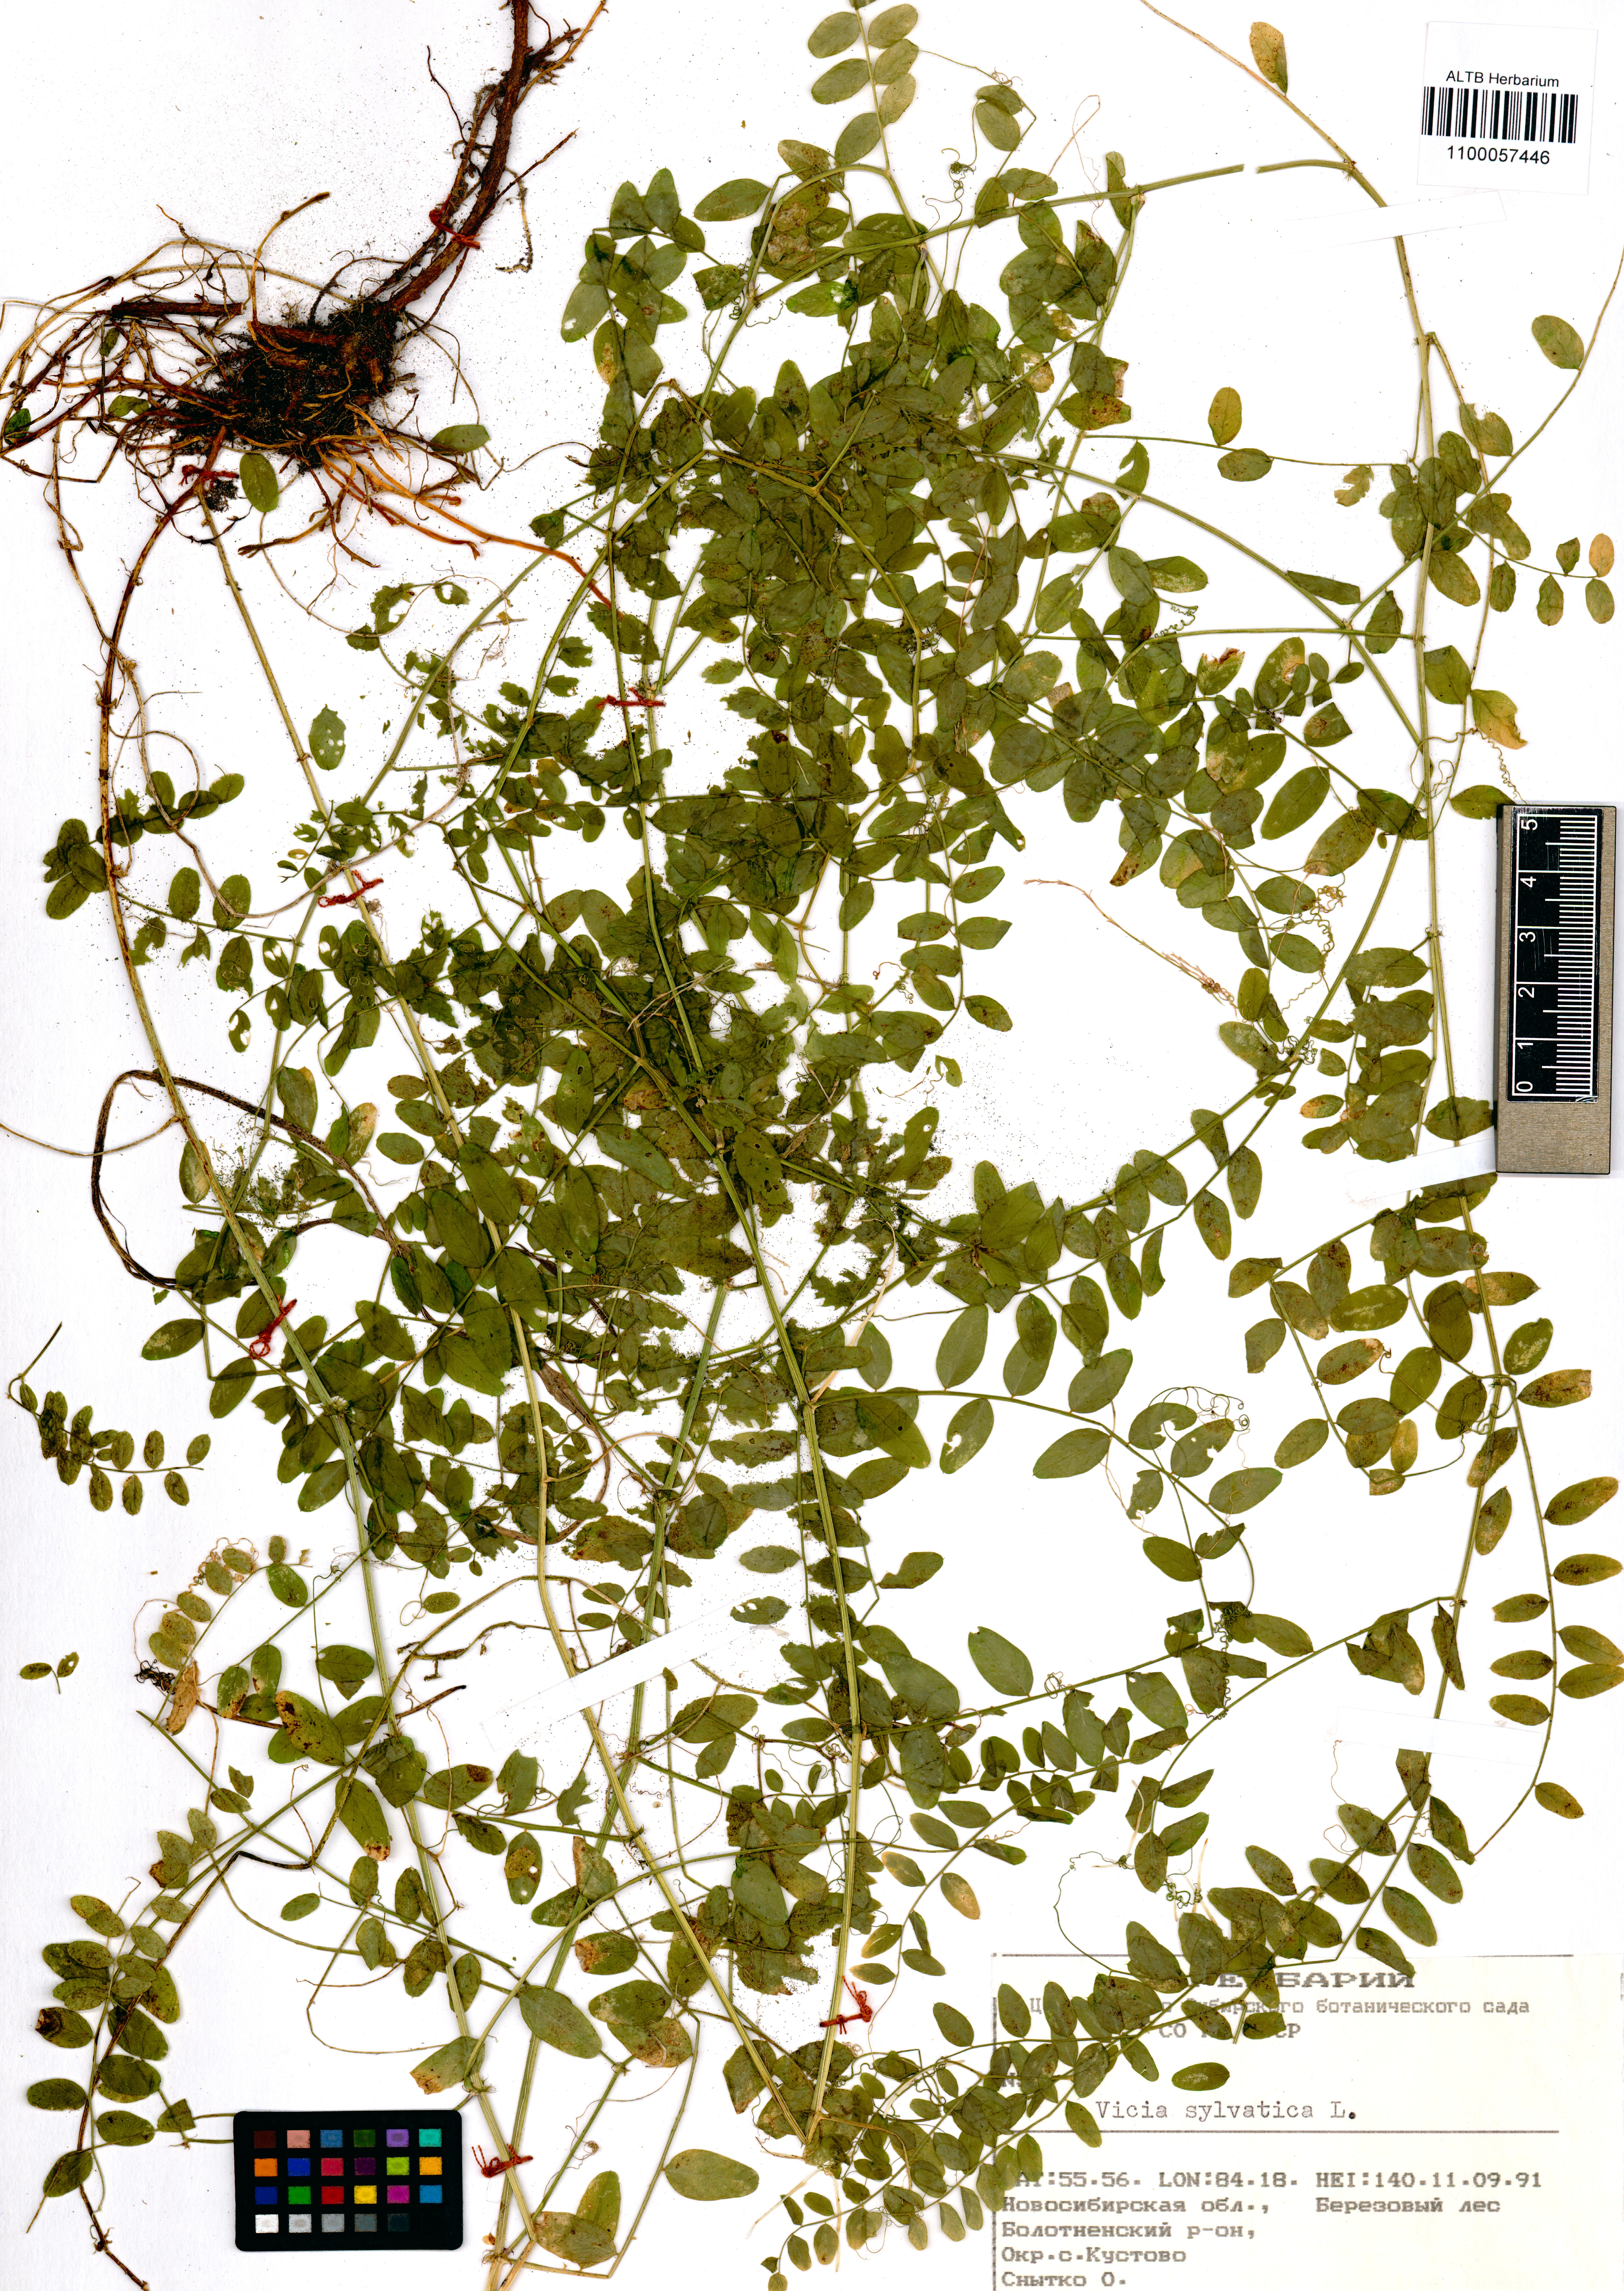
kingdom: Plantae
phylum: Tracheophyta
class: Magnoliopsida
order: Fabales
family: Fabaceae
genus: Vicia
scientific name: Vicia sylvatica
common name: Wood vetch
